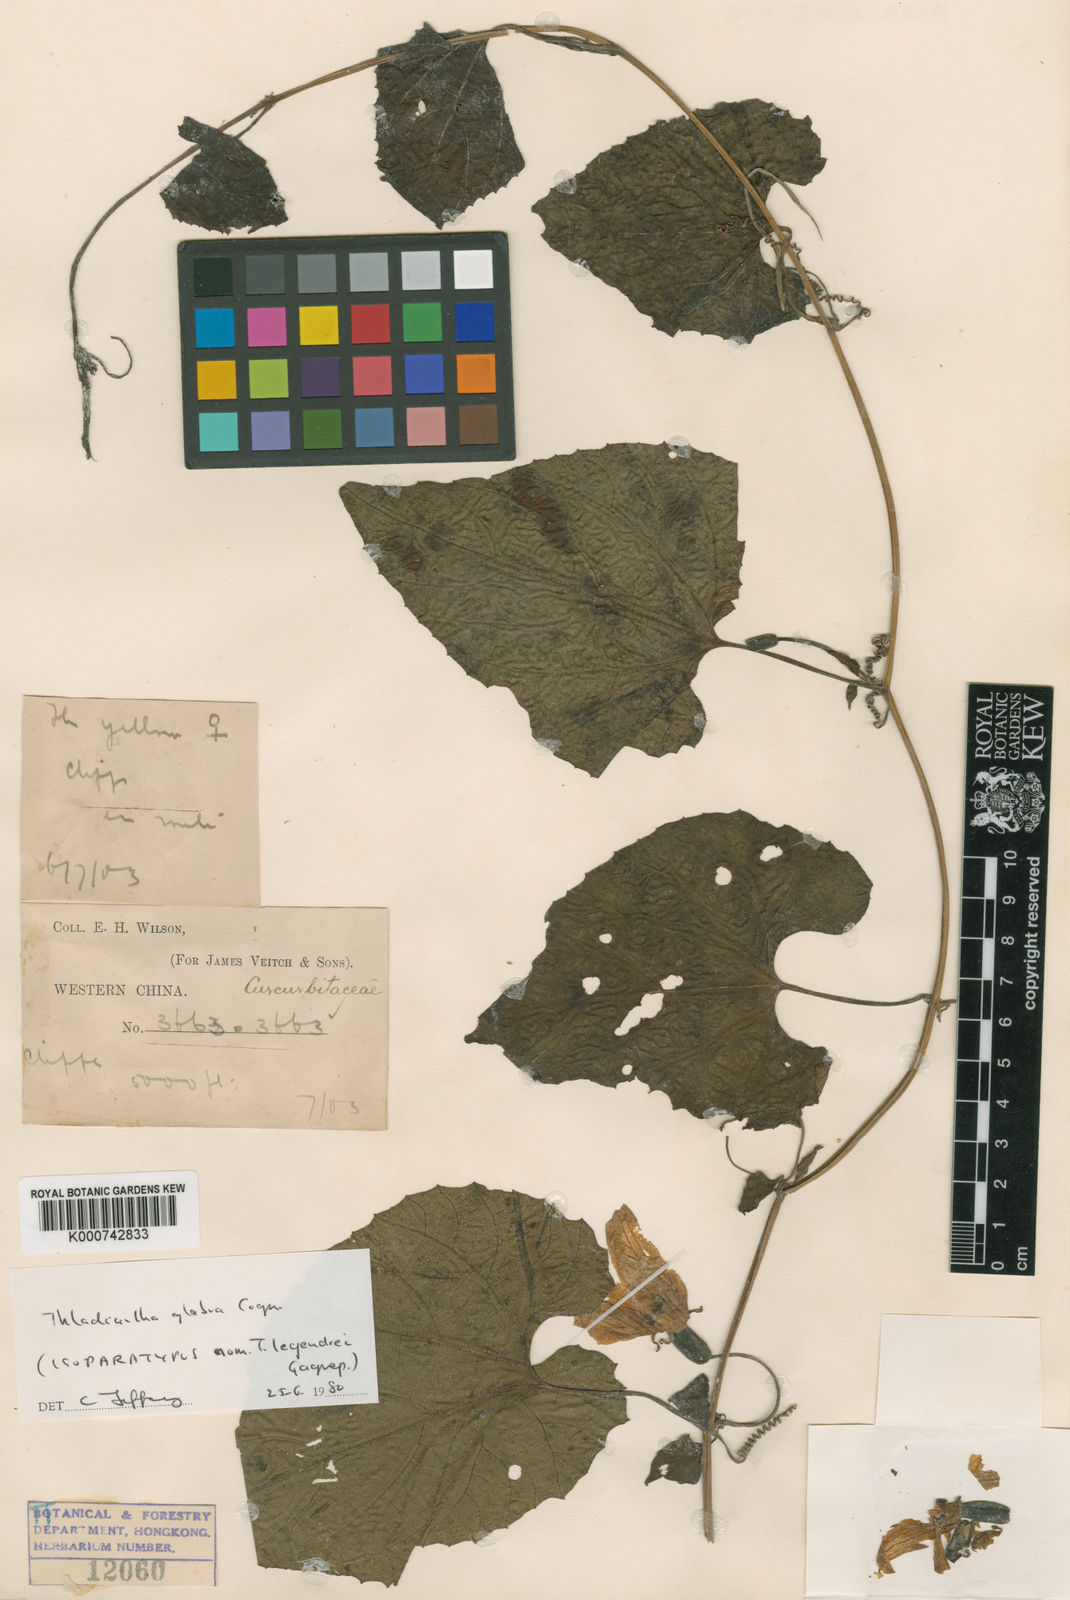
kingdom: Plantae
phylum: Tracheophyta
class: Magnoliopsida
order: Cucurbitales
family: Cucurbitaceae
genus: Thladiantha
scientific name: Thladiantha
